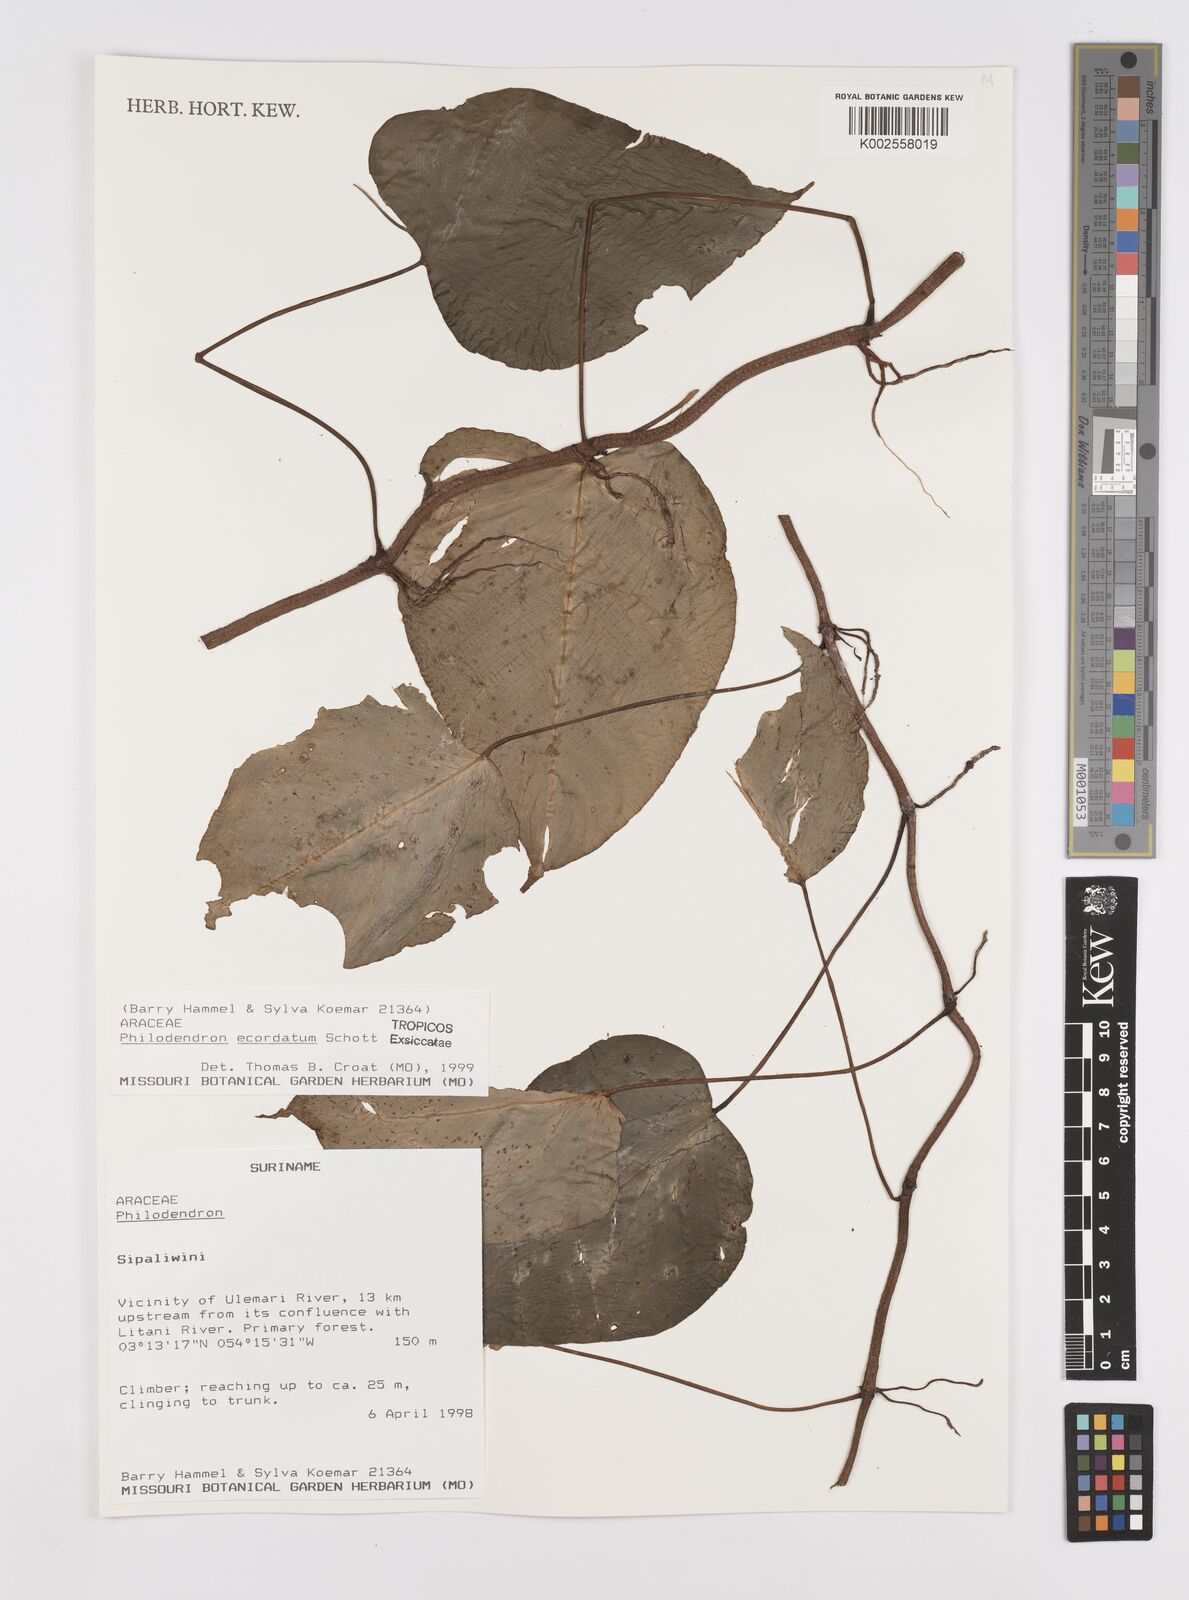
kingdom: Plantae
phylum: Tracheophyta
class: Liliopsida
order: Alismatales
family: Araceae
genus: Philodendron
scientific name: Philodendron ecordatum
